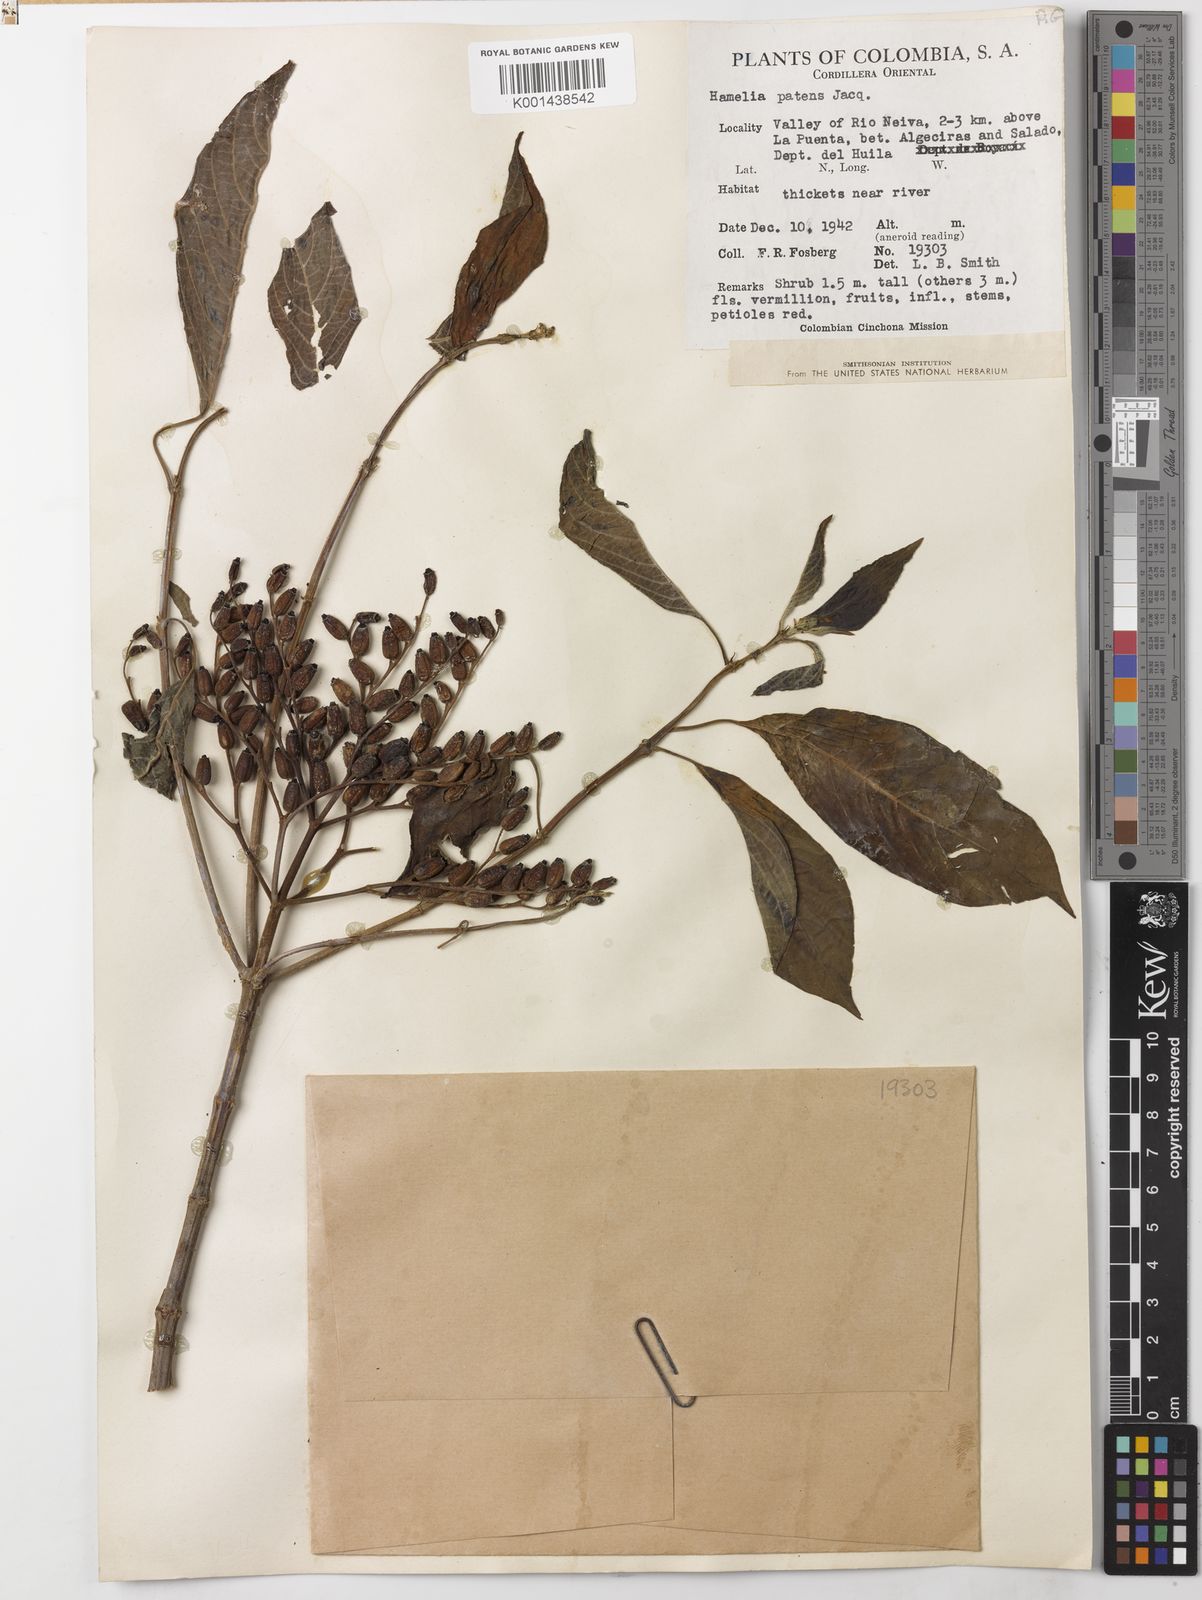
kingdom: Plantae
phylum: Tracheophyta
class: Magnoliopsida
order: Gentianales
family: Rubiaceae
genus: Hamelia
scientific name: Hamelia patens
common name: Redhead
